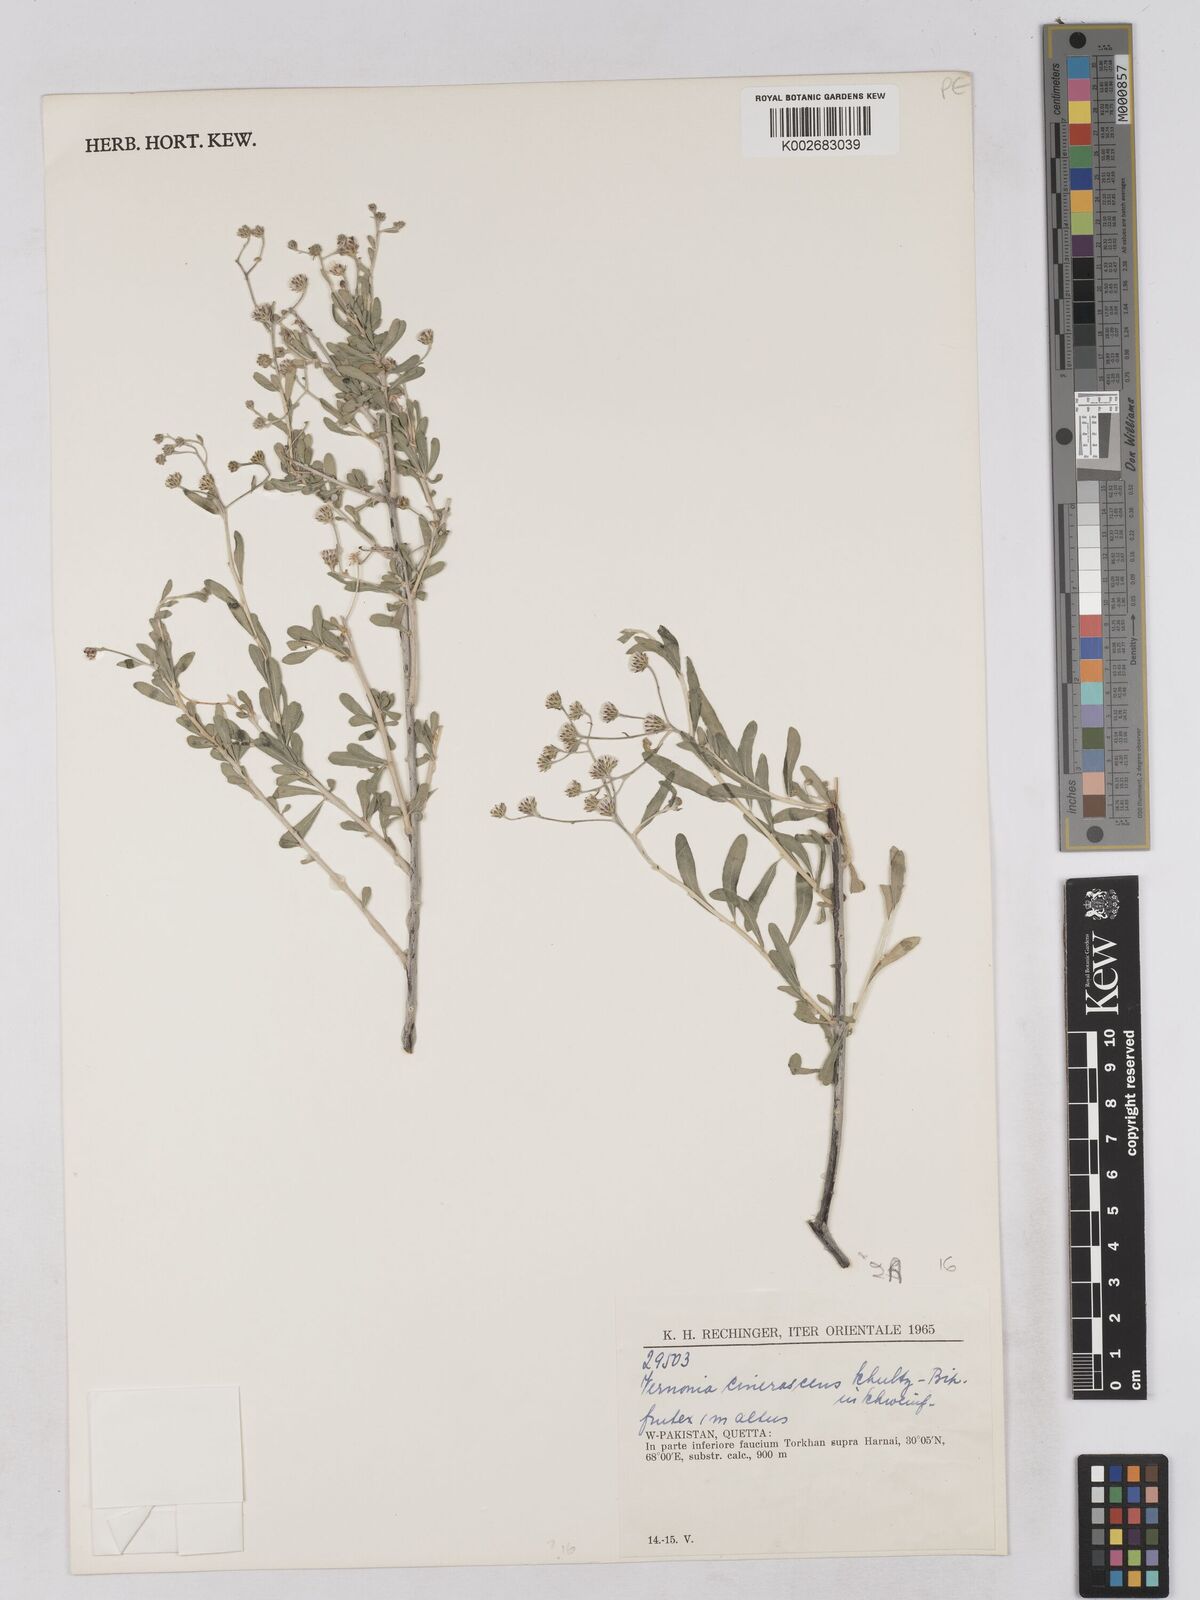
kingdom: Plantae
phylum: Tracheophyta
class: Magnoliopsida
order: Asterales
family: Asteraceae
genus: Orbivestus
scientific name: Orbivestus cinerascens
